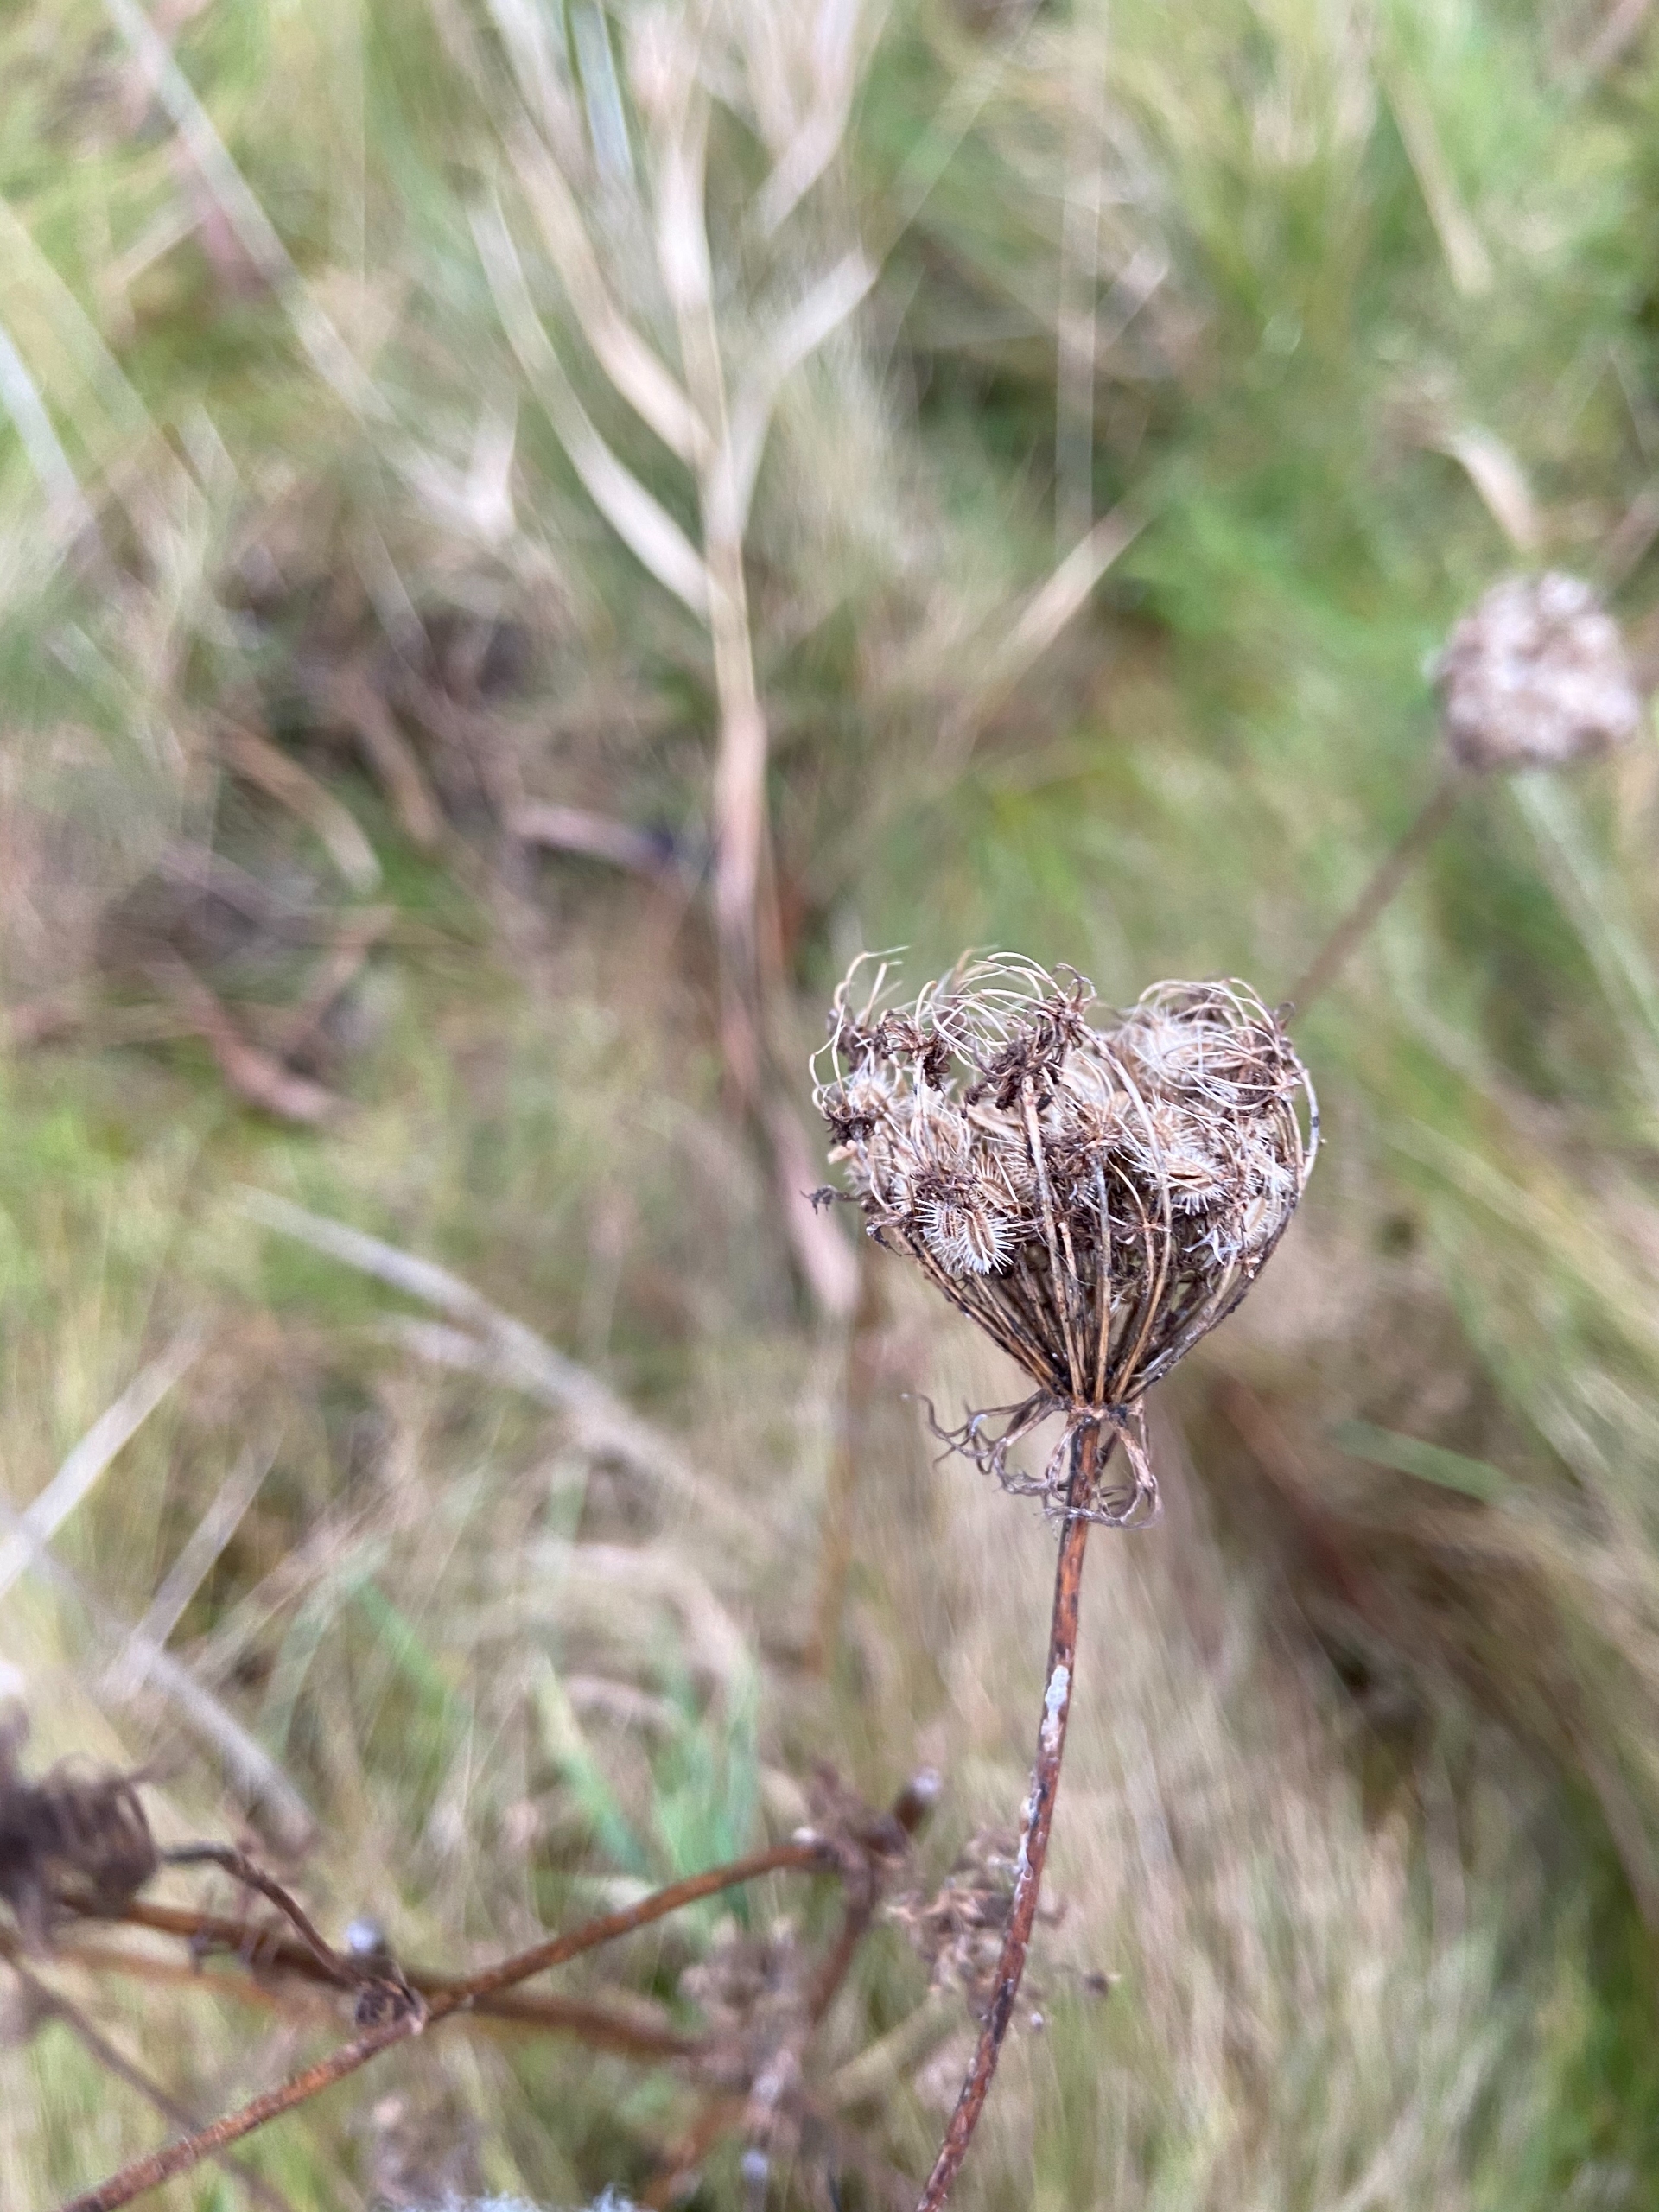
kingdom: Plantae
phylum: Tracheophyta
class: Magnoliopsida
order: Apiales
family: Apiaceae
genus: Daucus
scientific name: Daucus carota
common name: Gulerod
